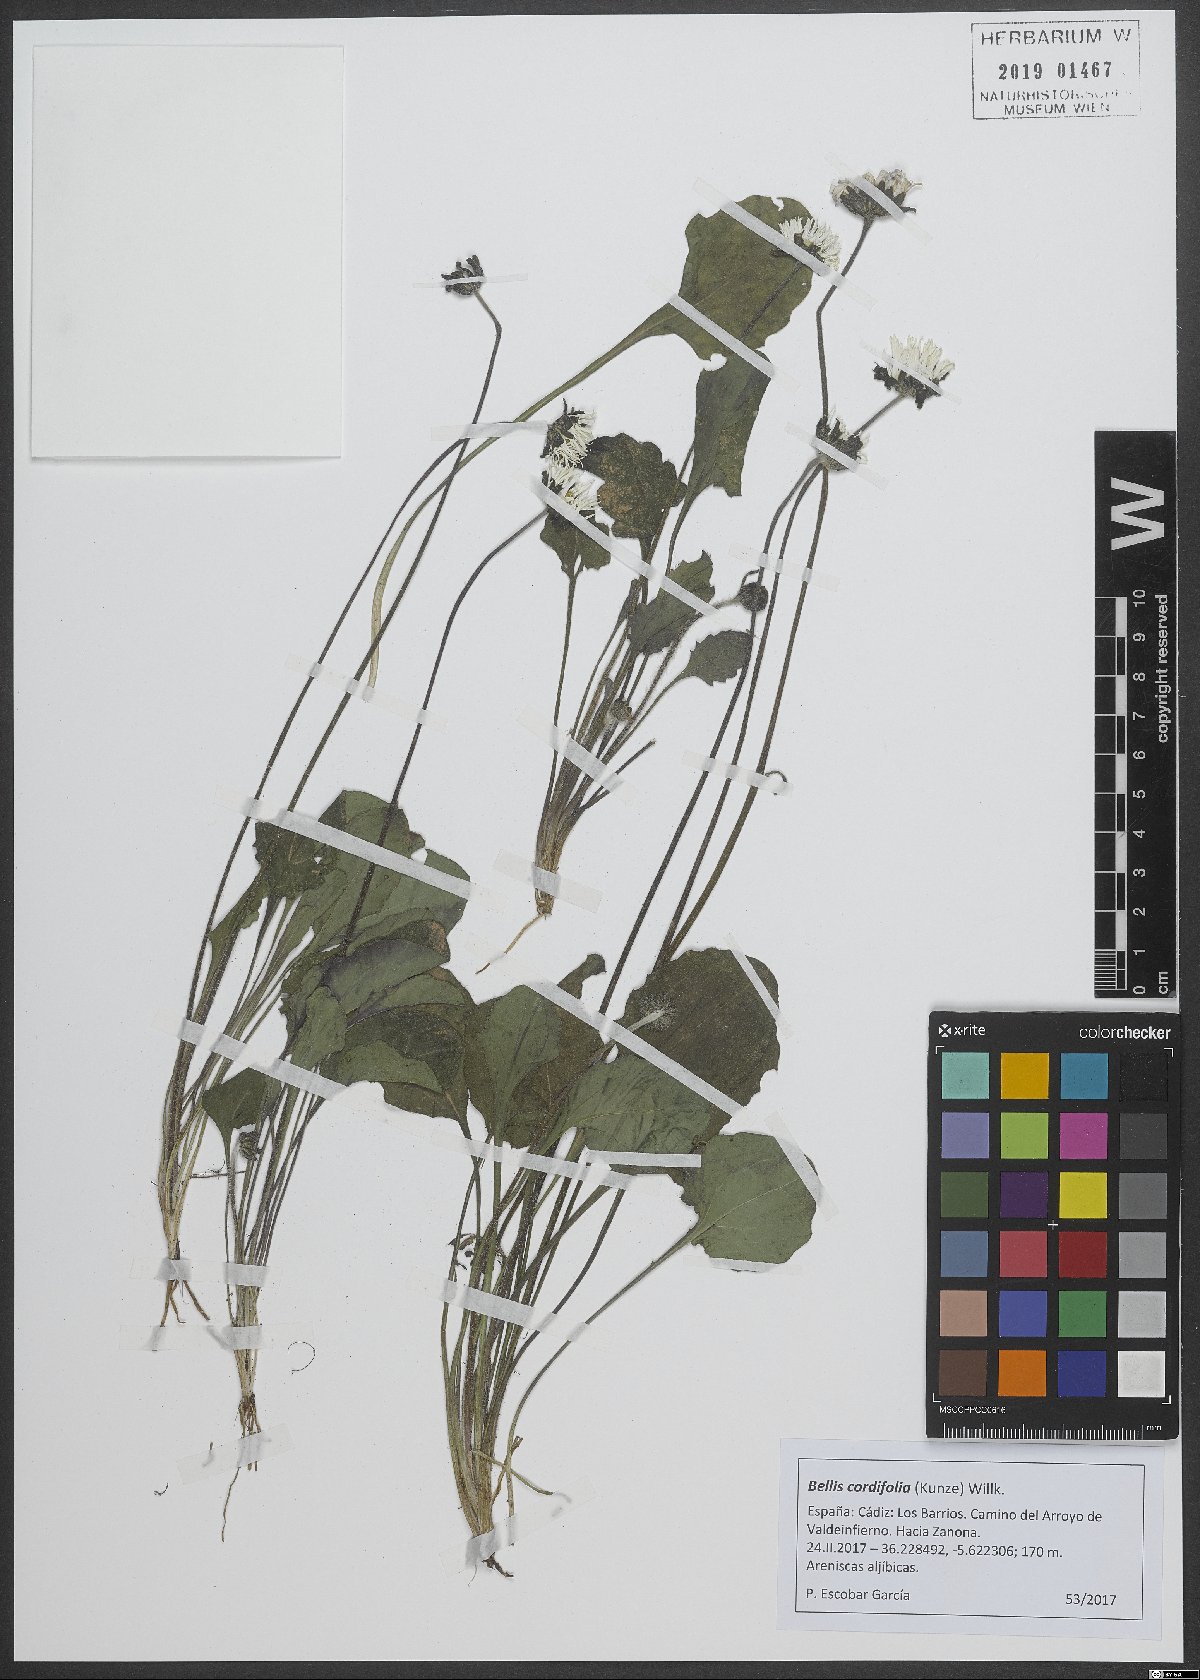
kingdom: Plantae
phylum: Tracheophyta
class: Magnoliopsida
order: Asterales
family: Asteraceae
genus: Bellis
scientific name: Bellis cordifolia
